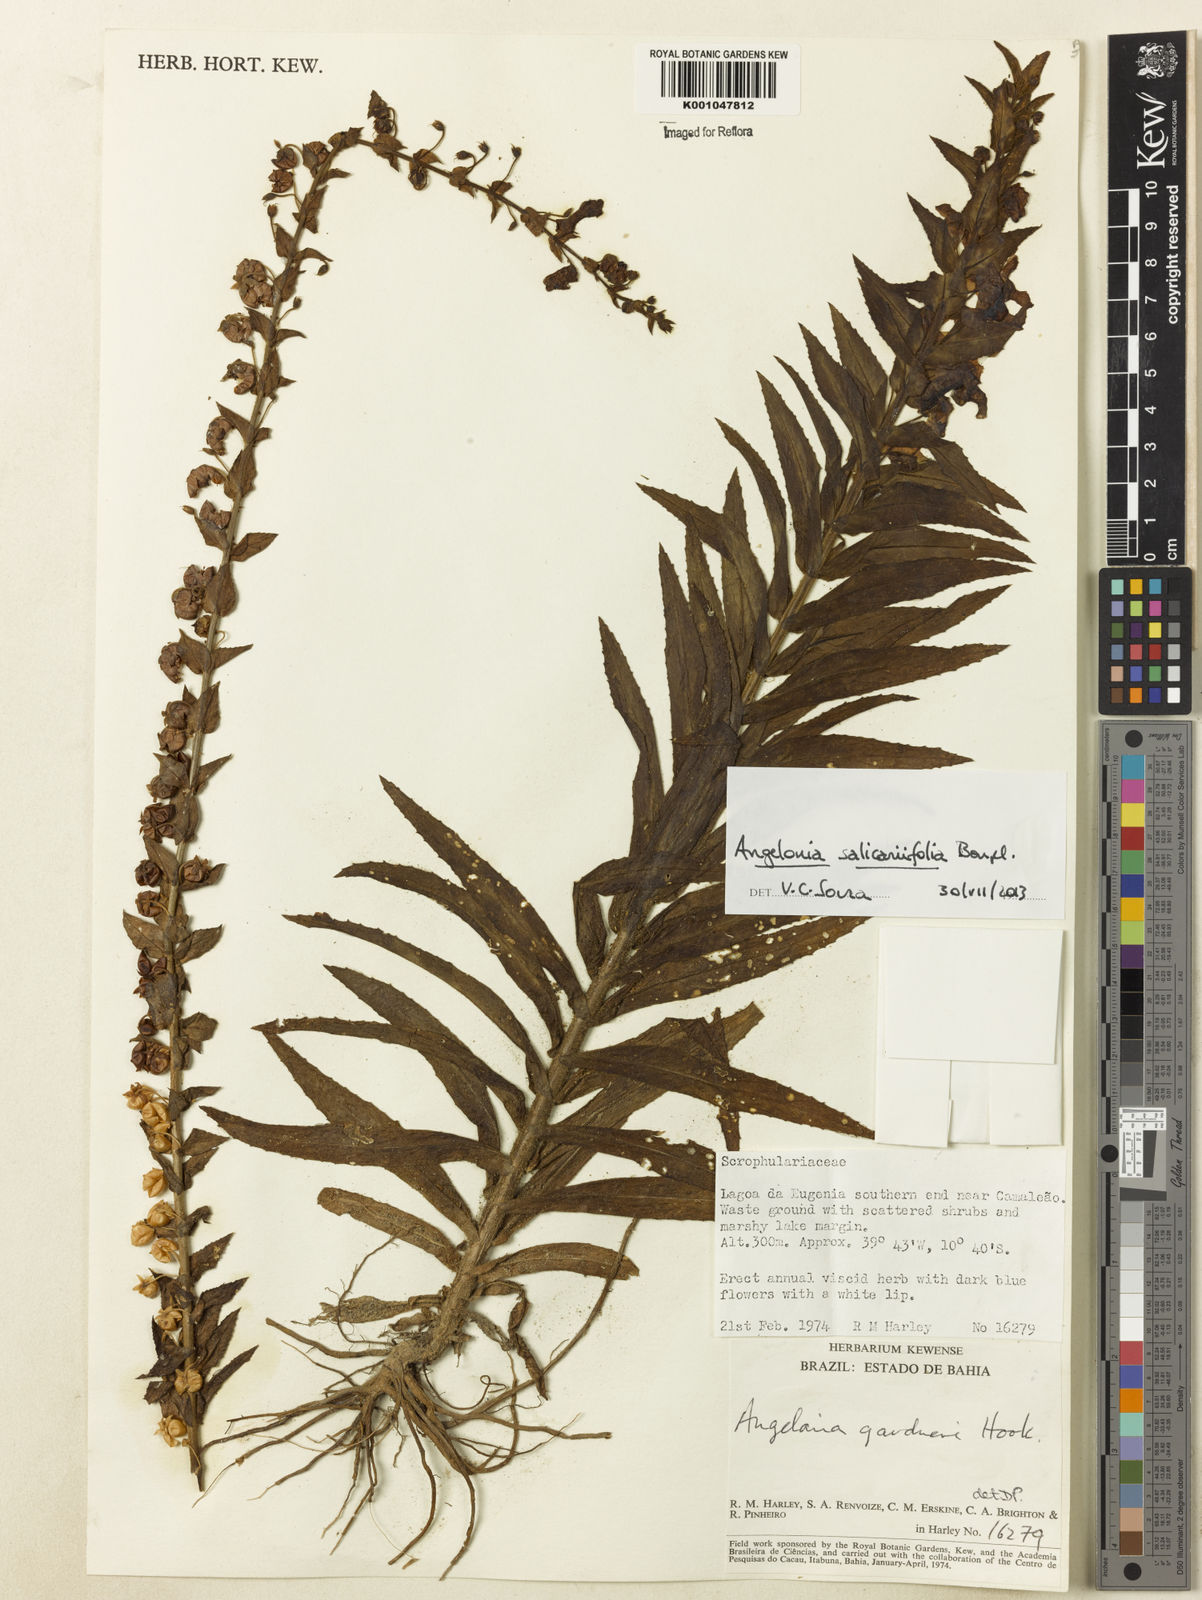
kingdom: Plantae
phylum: Tracheophyta
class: Magnoliopsida
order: Lamiales
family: Plantaginaceae
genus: Angelonia
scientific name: Angelonia salicariifolia
